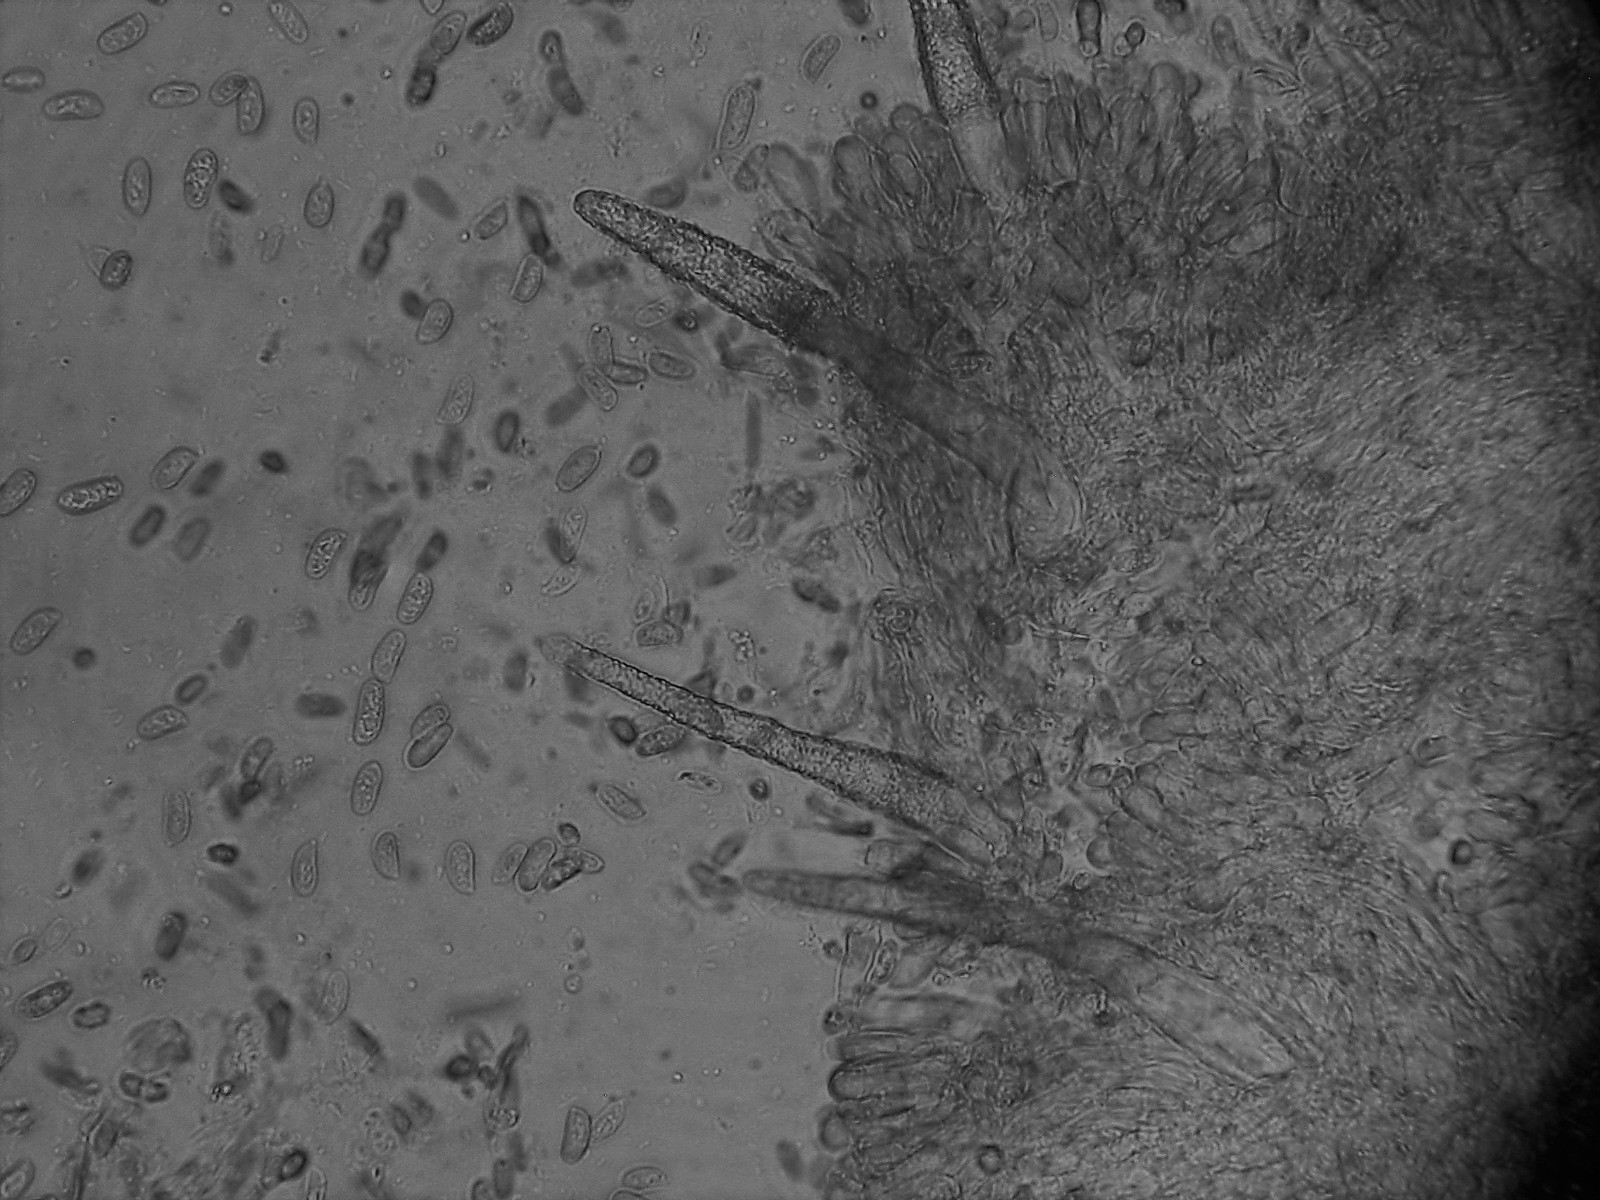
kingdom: Fungi
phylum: Basidiomycota
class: Agaricomycetes
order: Polyporales
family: Phanerochaetaceae
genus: Phanerochaete
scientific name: Phanerochaete sordida
